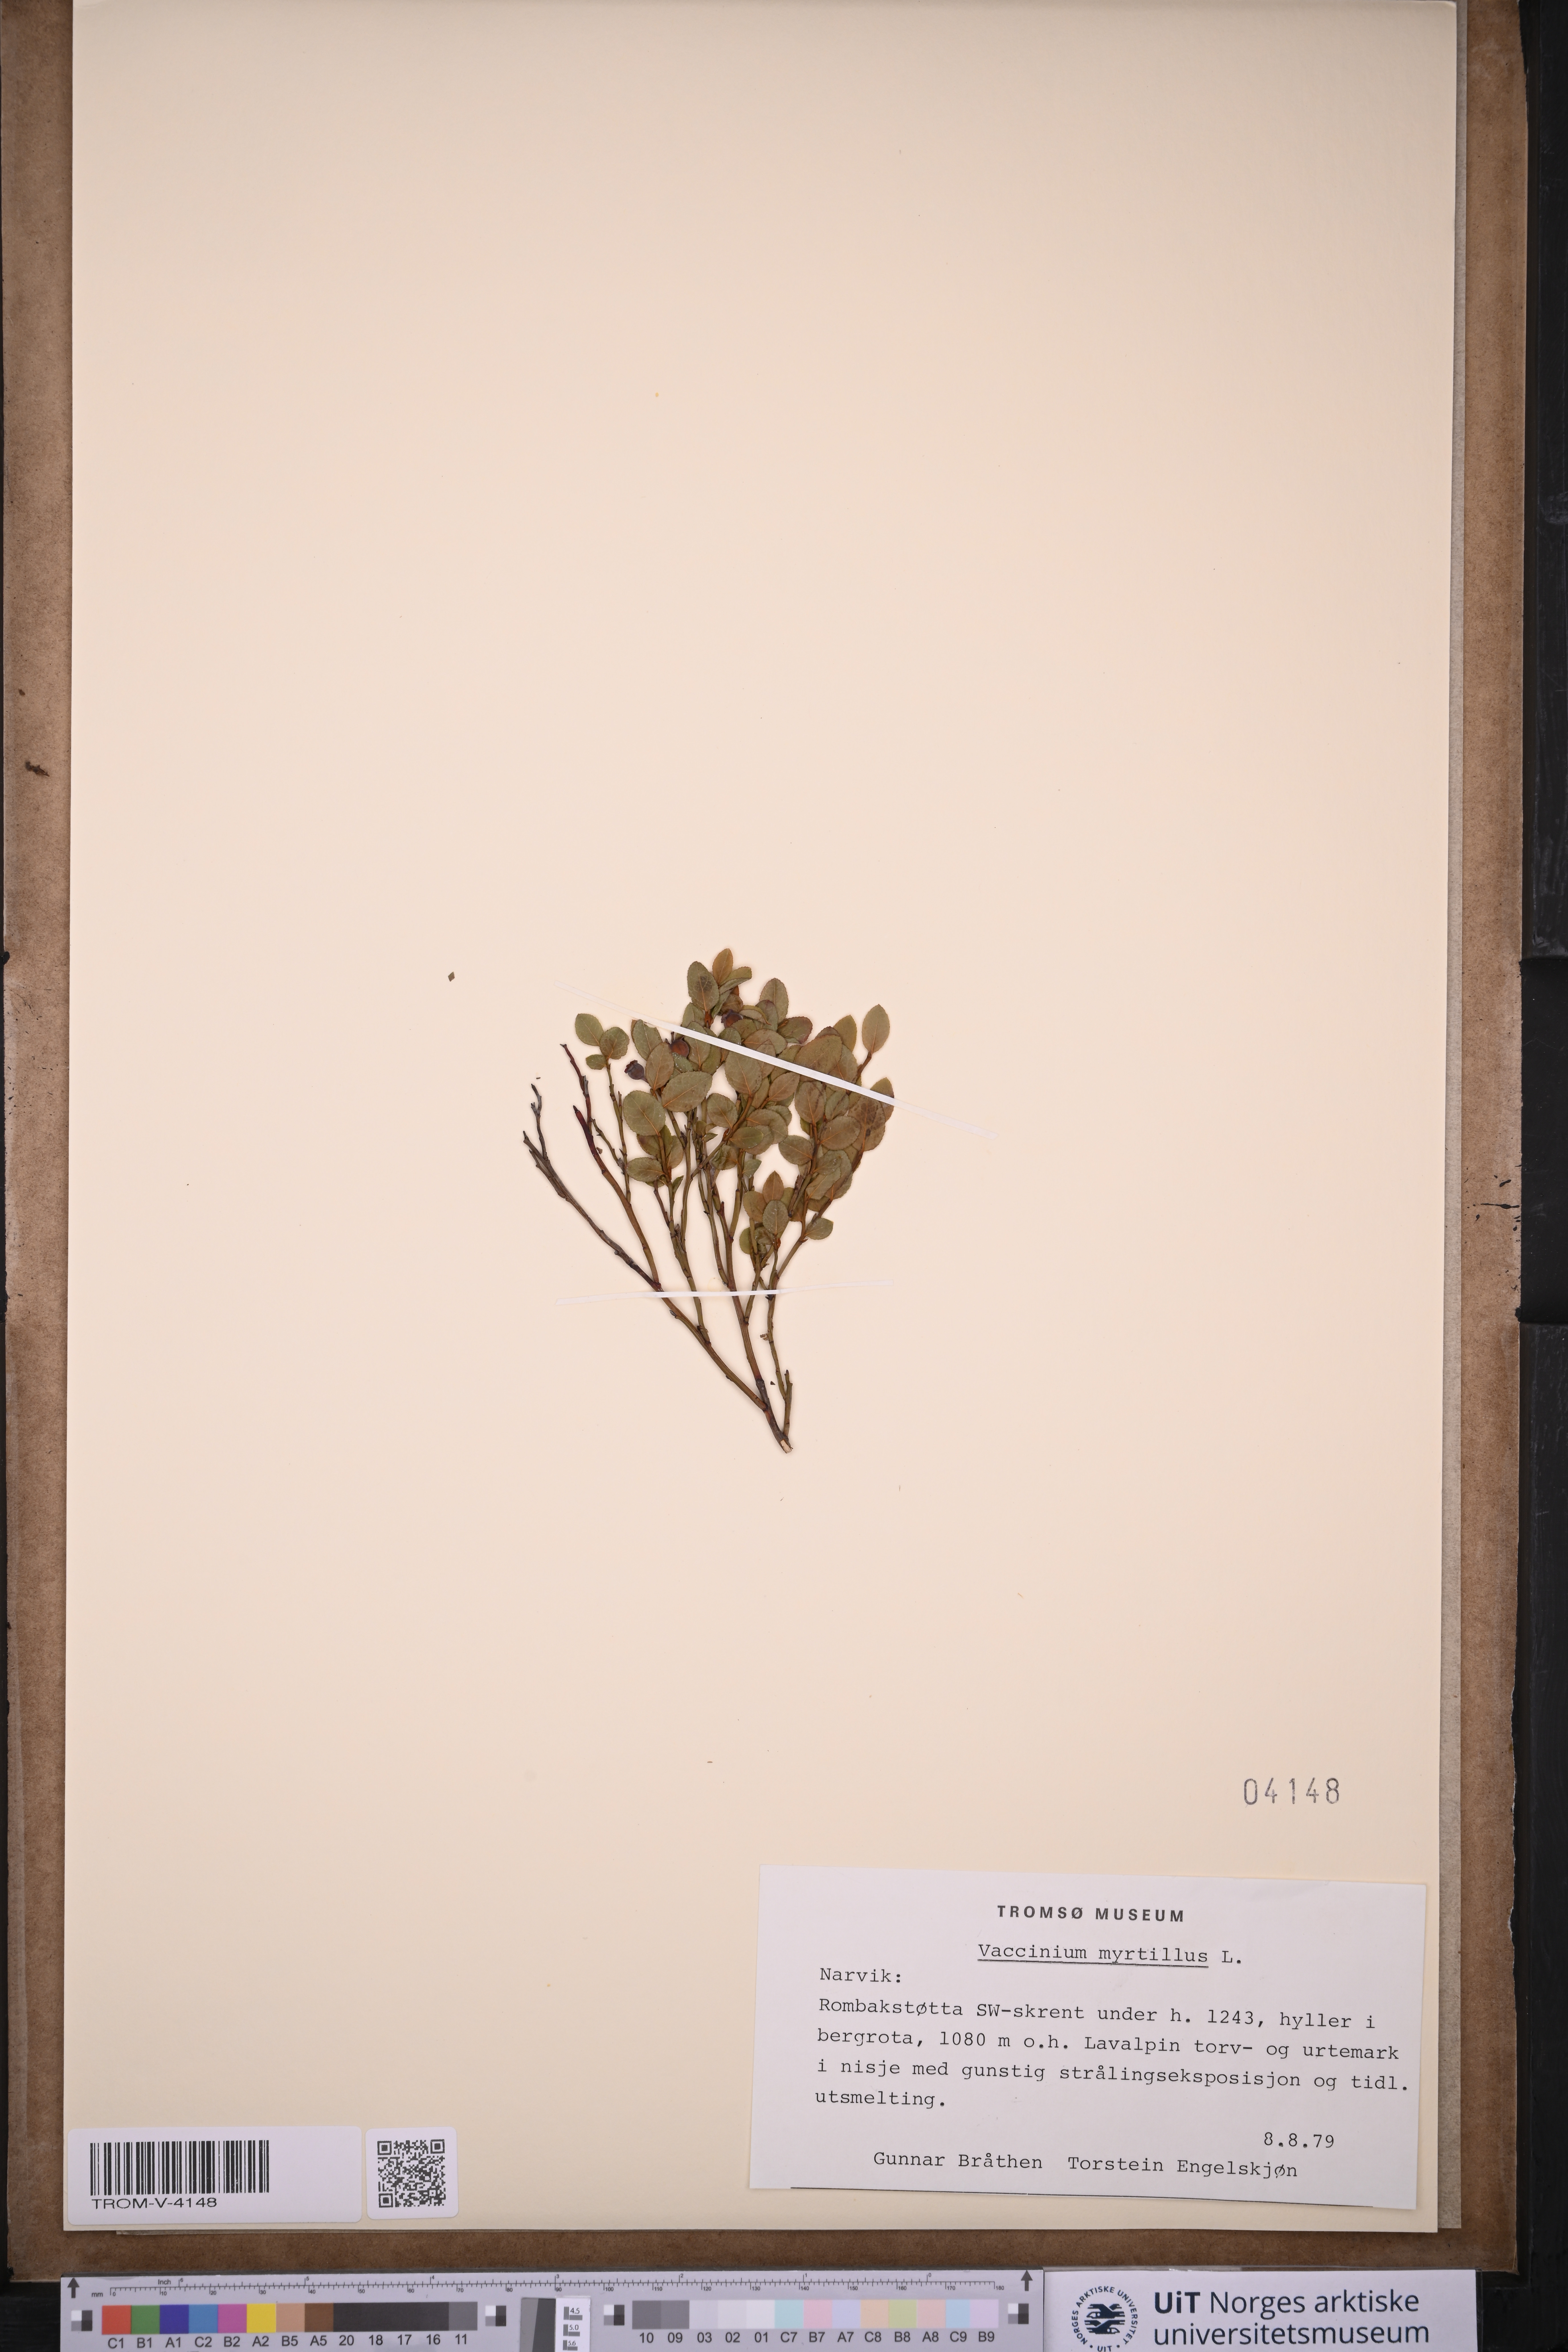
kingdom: Plantae
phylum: Tracheophyta
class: Magnoliopsida
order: Ericales
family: Ericaceae
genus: Vaccinium
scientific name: Vaccinium myrtillus
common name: Bilberry
